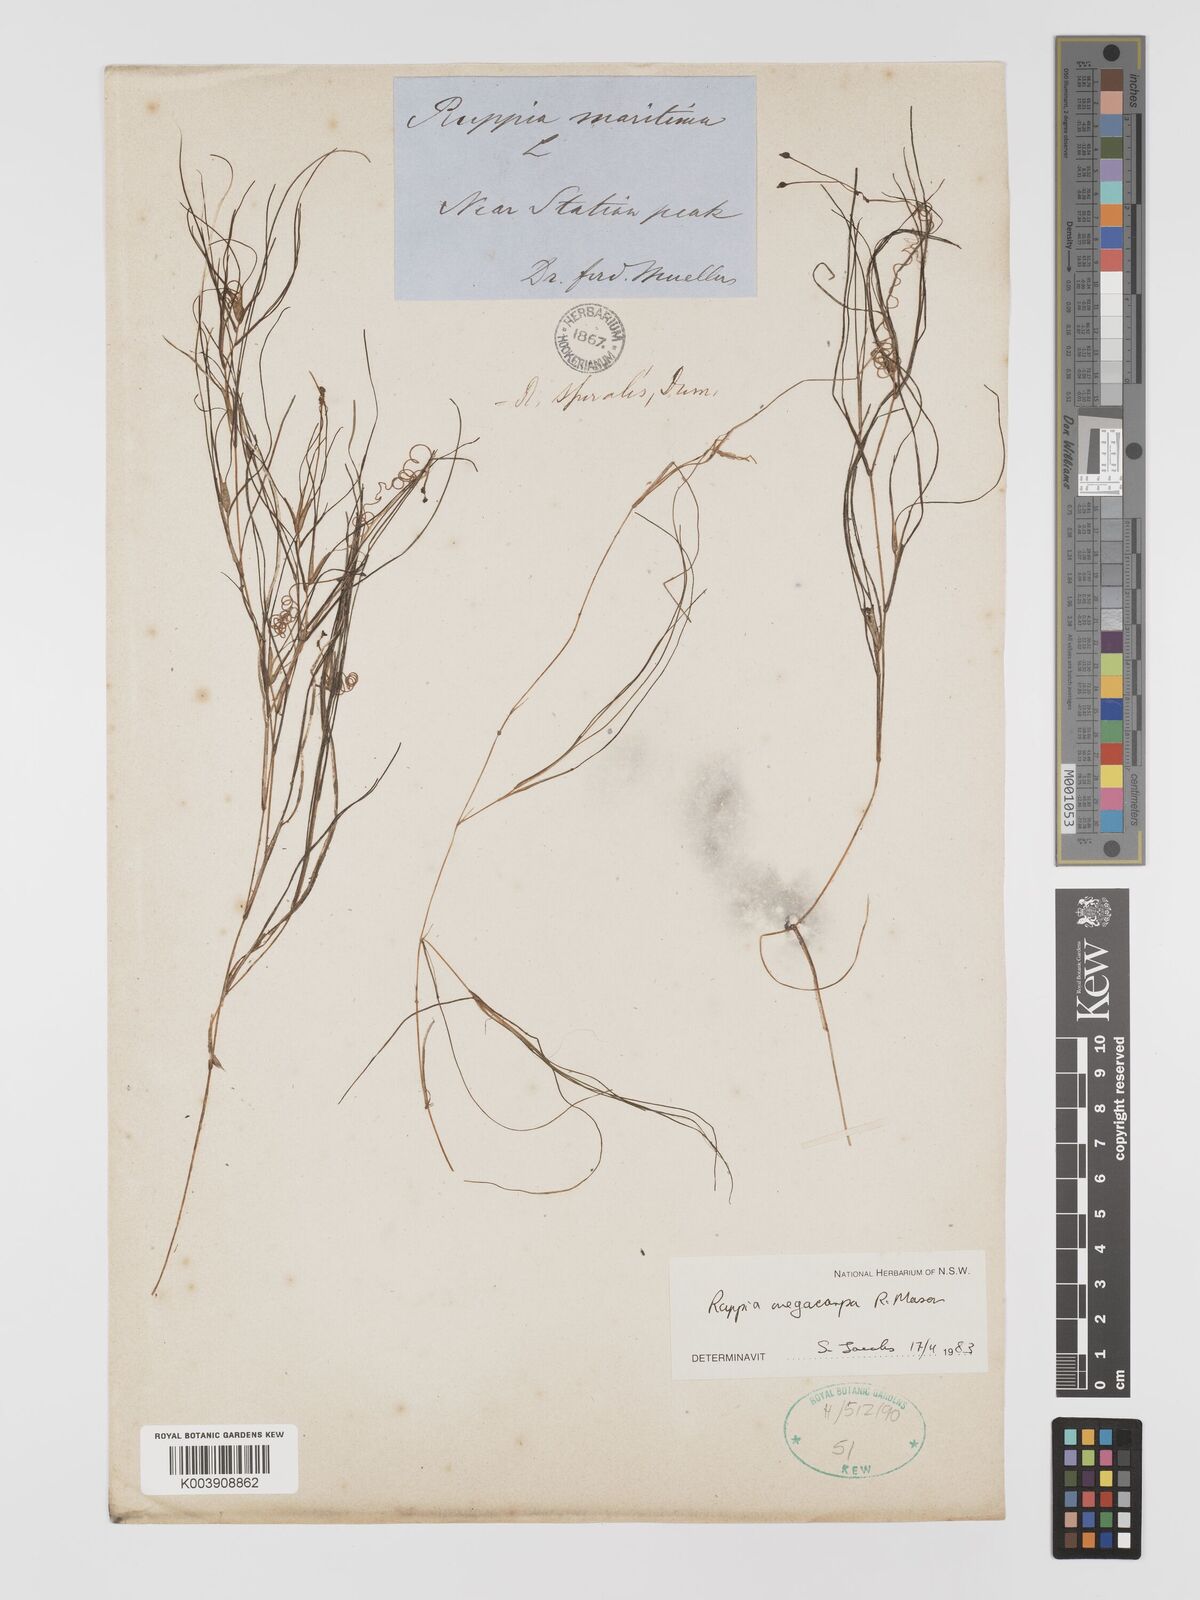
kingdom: Plantae
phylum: Tracheophyta
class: Liliopsida
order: Alismatales
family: Ruppiaceae
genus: Ruppia
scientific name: Ruppia megacarpa
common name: Large-fruit seatassel
